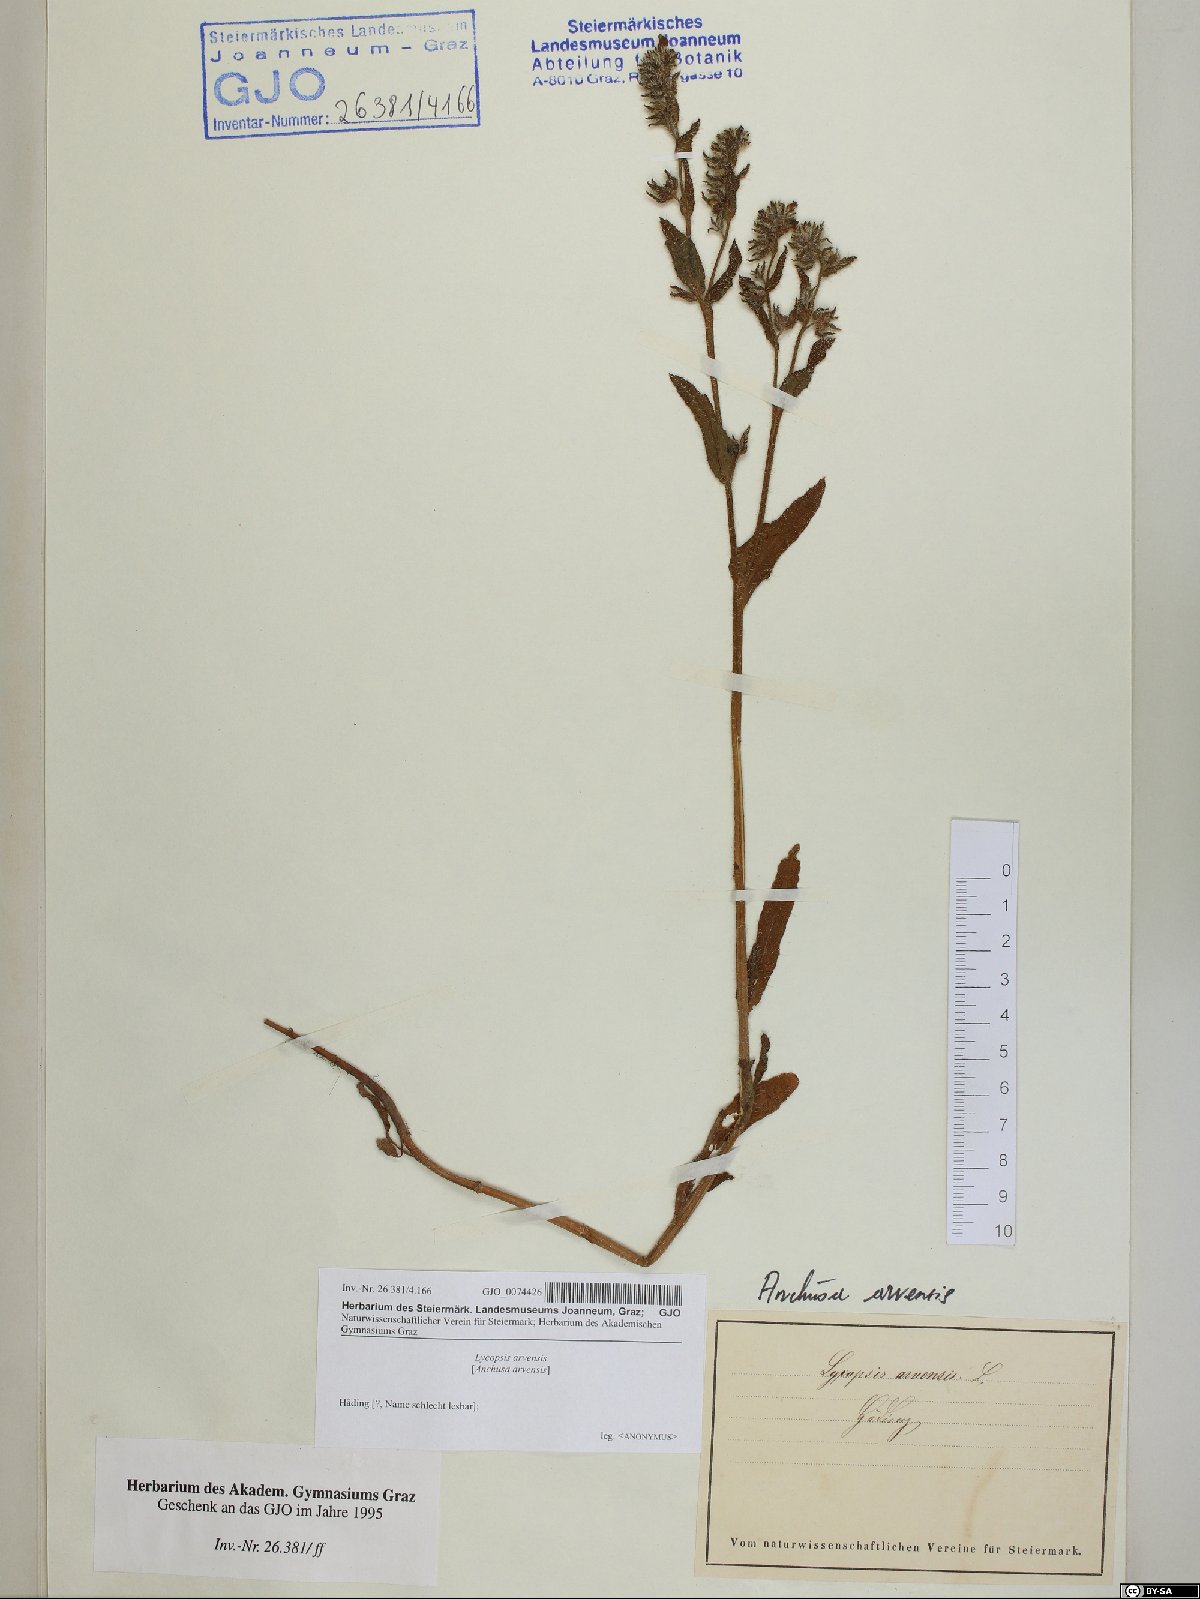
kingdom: Plantae
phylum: Tracheophyta
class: Magnoliopsida
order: Boraginales
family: Boraginaceae
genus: Lycopsis
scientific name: Lycopsis arvensis
